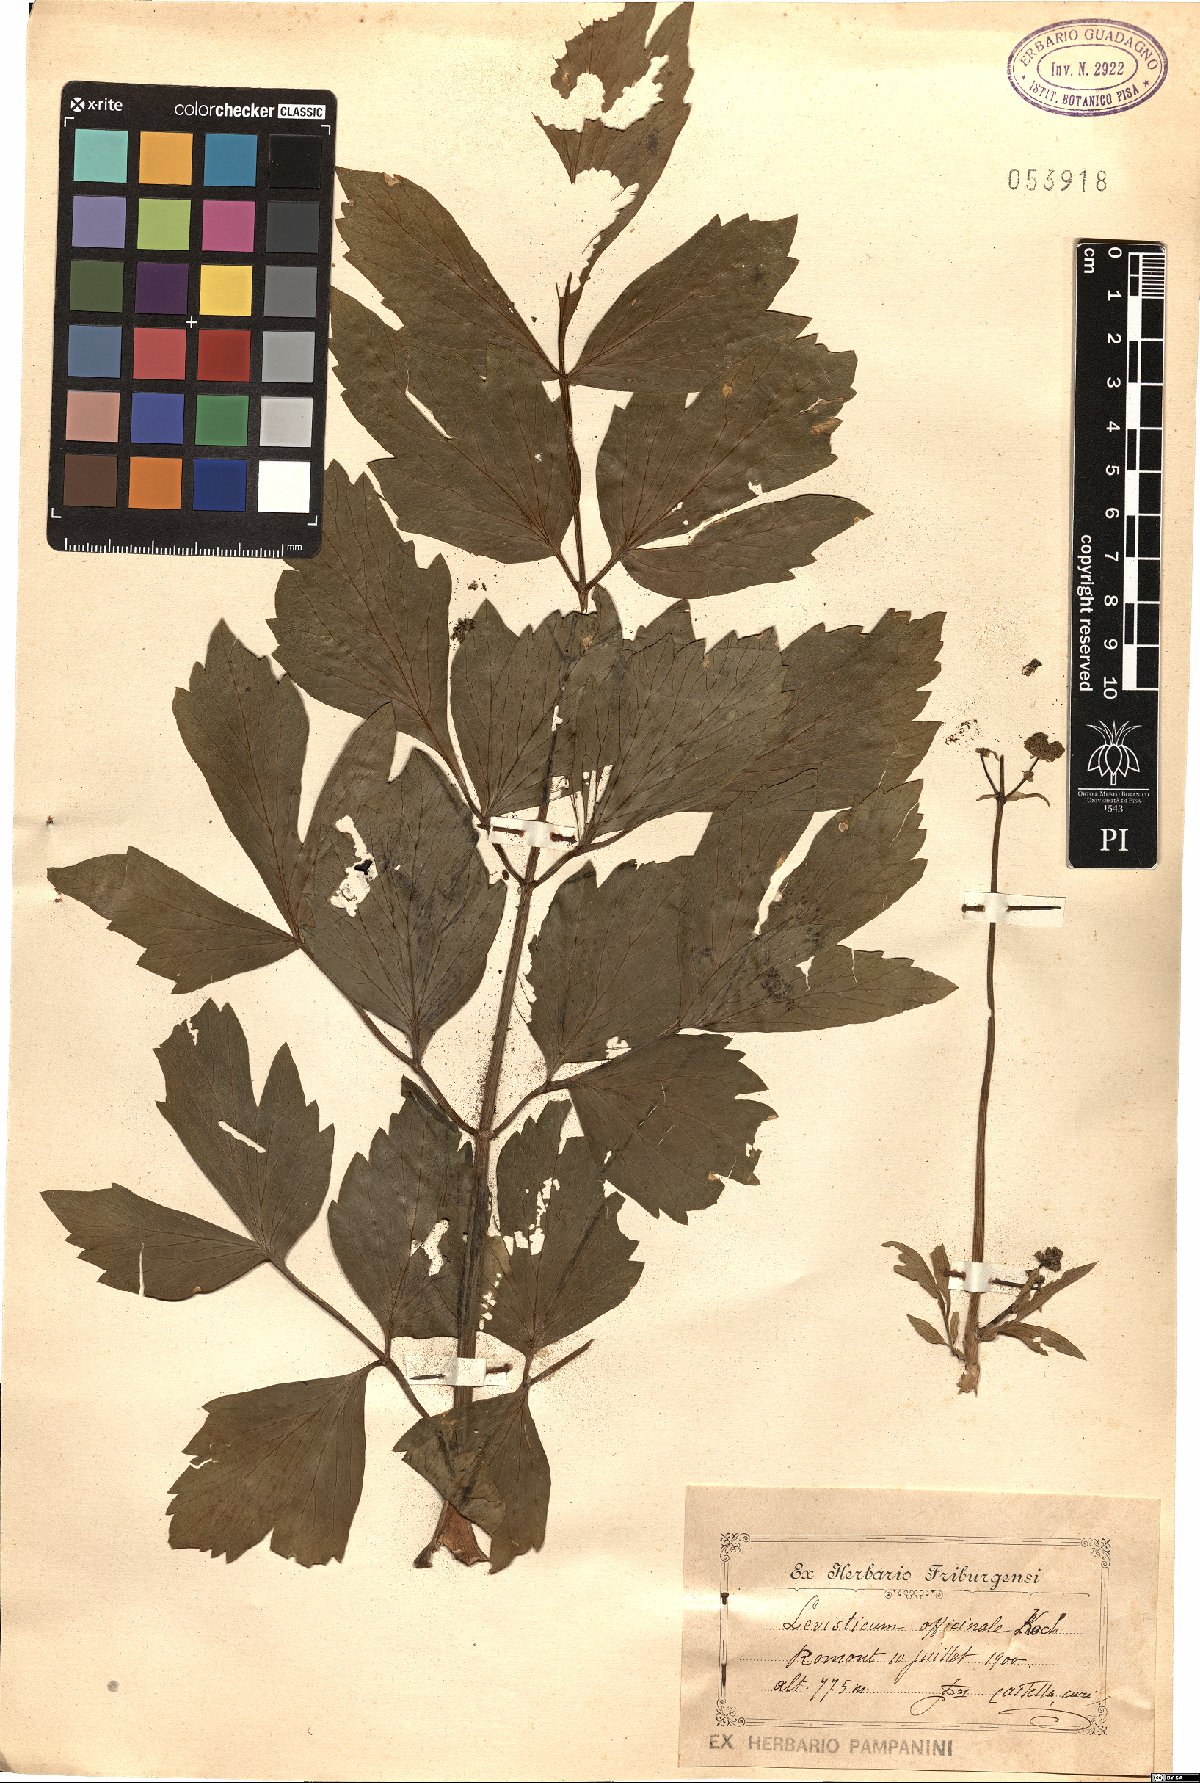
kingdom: Plantae
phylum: Tracheophyta
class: Magnoliopsida
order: Apiales
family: Apiaceae
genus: Levisticum
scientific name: Levisticum officinale
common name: Lovage
